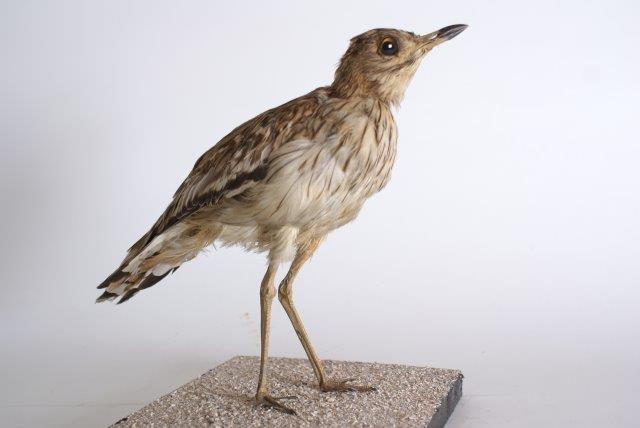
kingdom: Animalia
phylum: Chordata
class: Aves
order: Charadriiformes
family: Burhinidae
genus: Burhinus
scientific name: Burhinus oedicnemus
